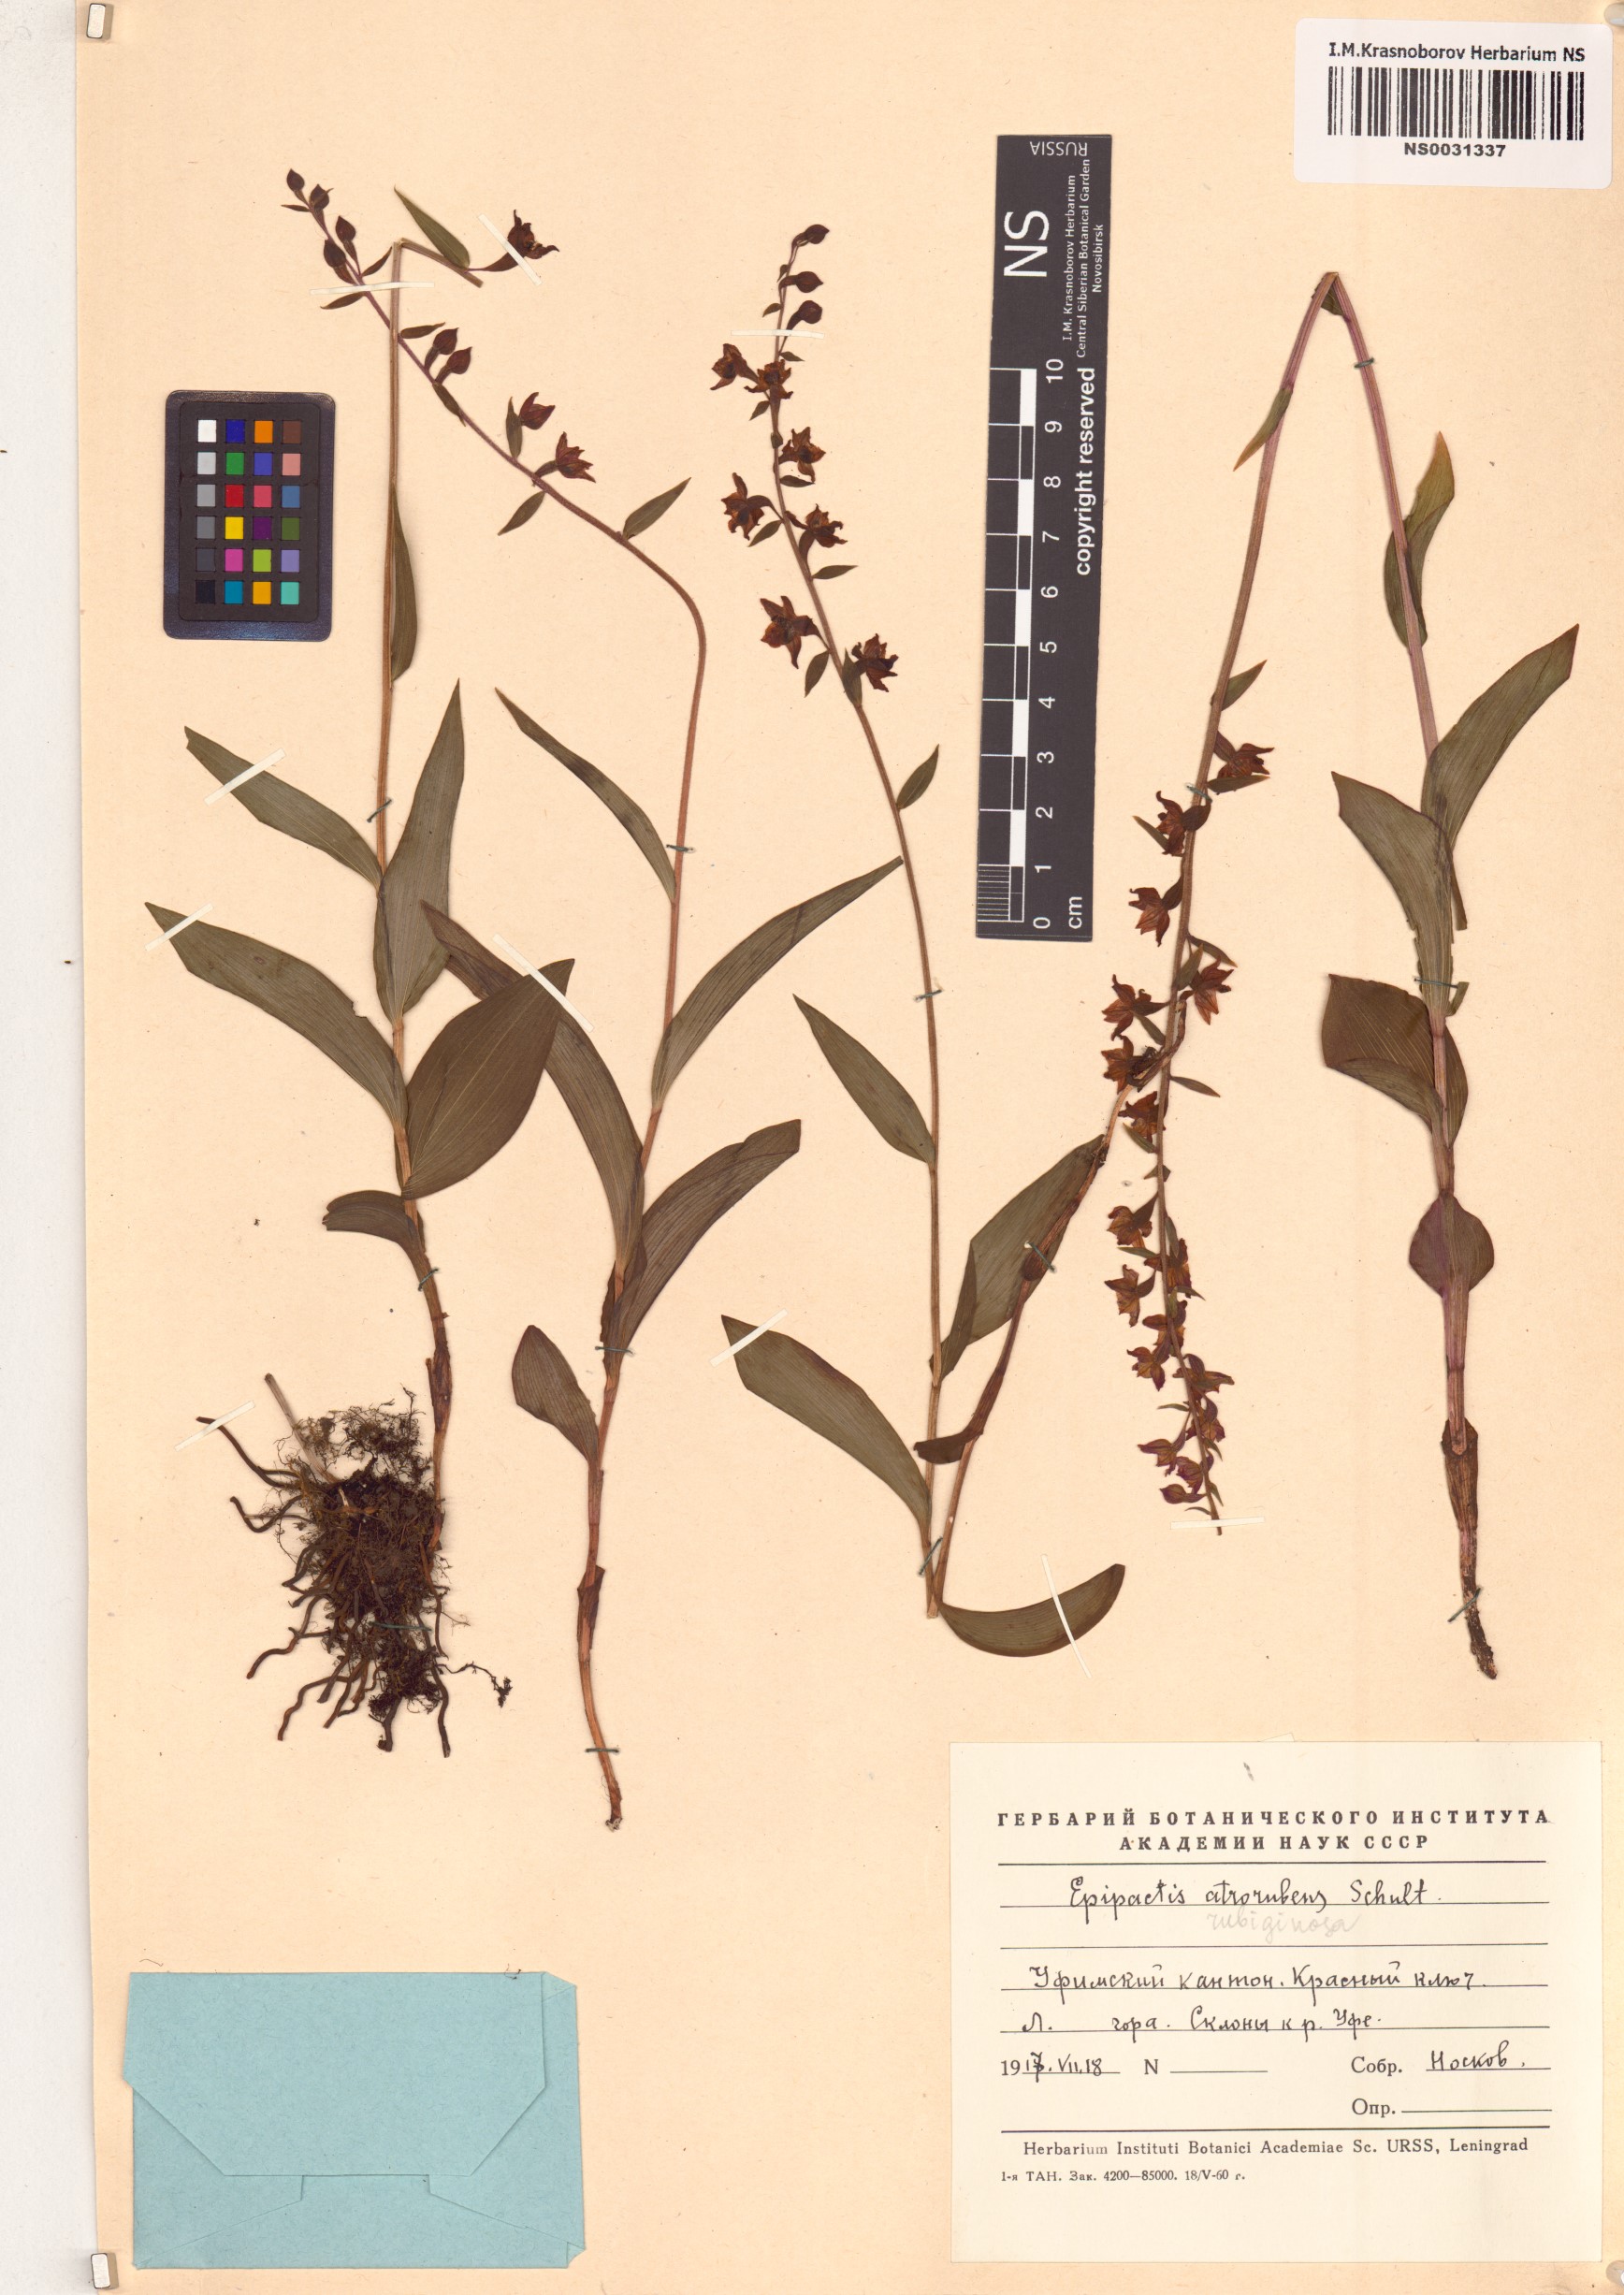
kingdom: Plantae
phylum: Tracheophyta
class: Liliopsida
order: Asparagales
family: Orchidaceae
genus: Epipactis
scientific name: Epipactis atrorubens
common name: Dark-red helleborine
